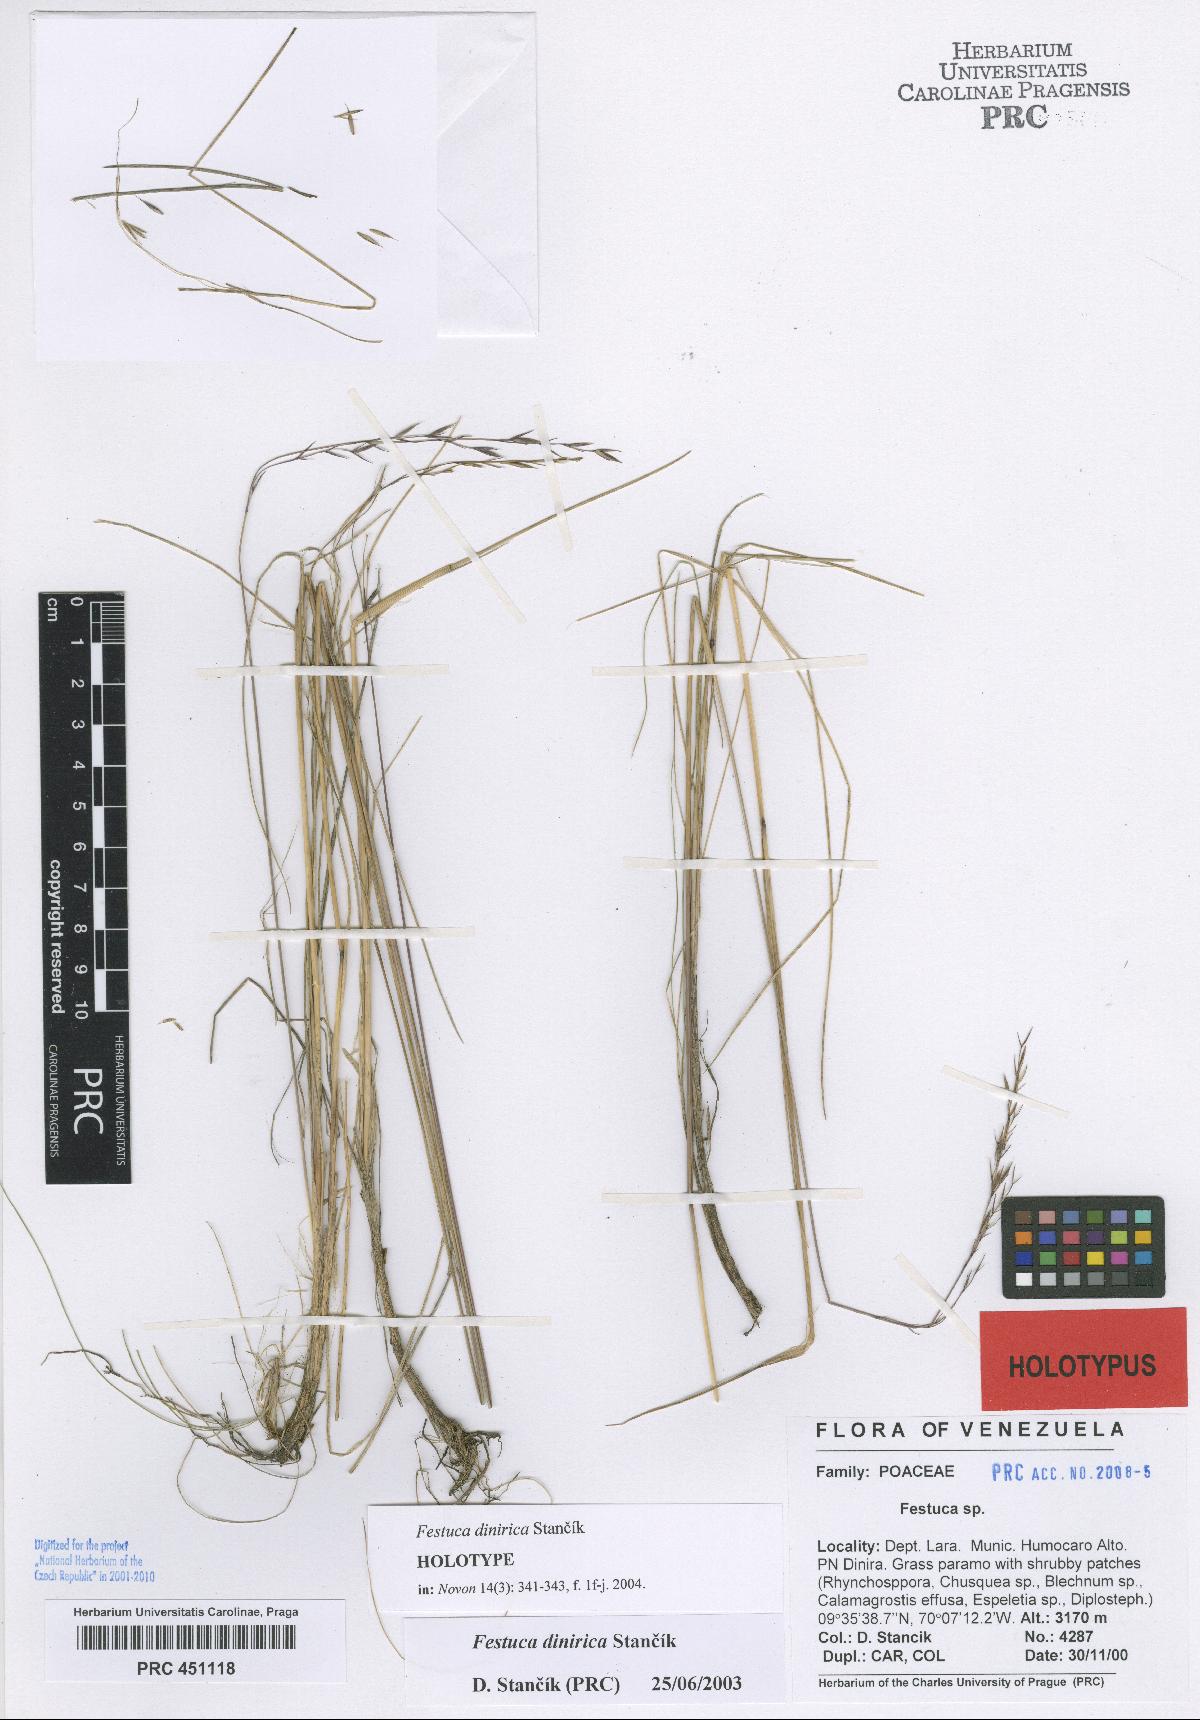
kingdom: Plantae
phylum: Tracheophyta
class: Liliopsida
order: Poales
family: Poaceae
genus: Festuca
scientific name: Festuca dinirica
